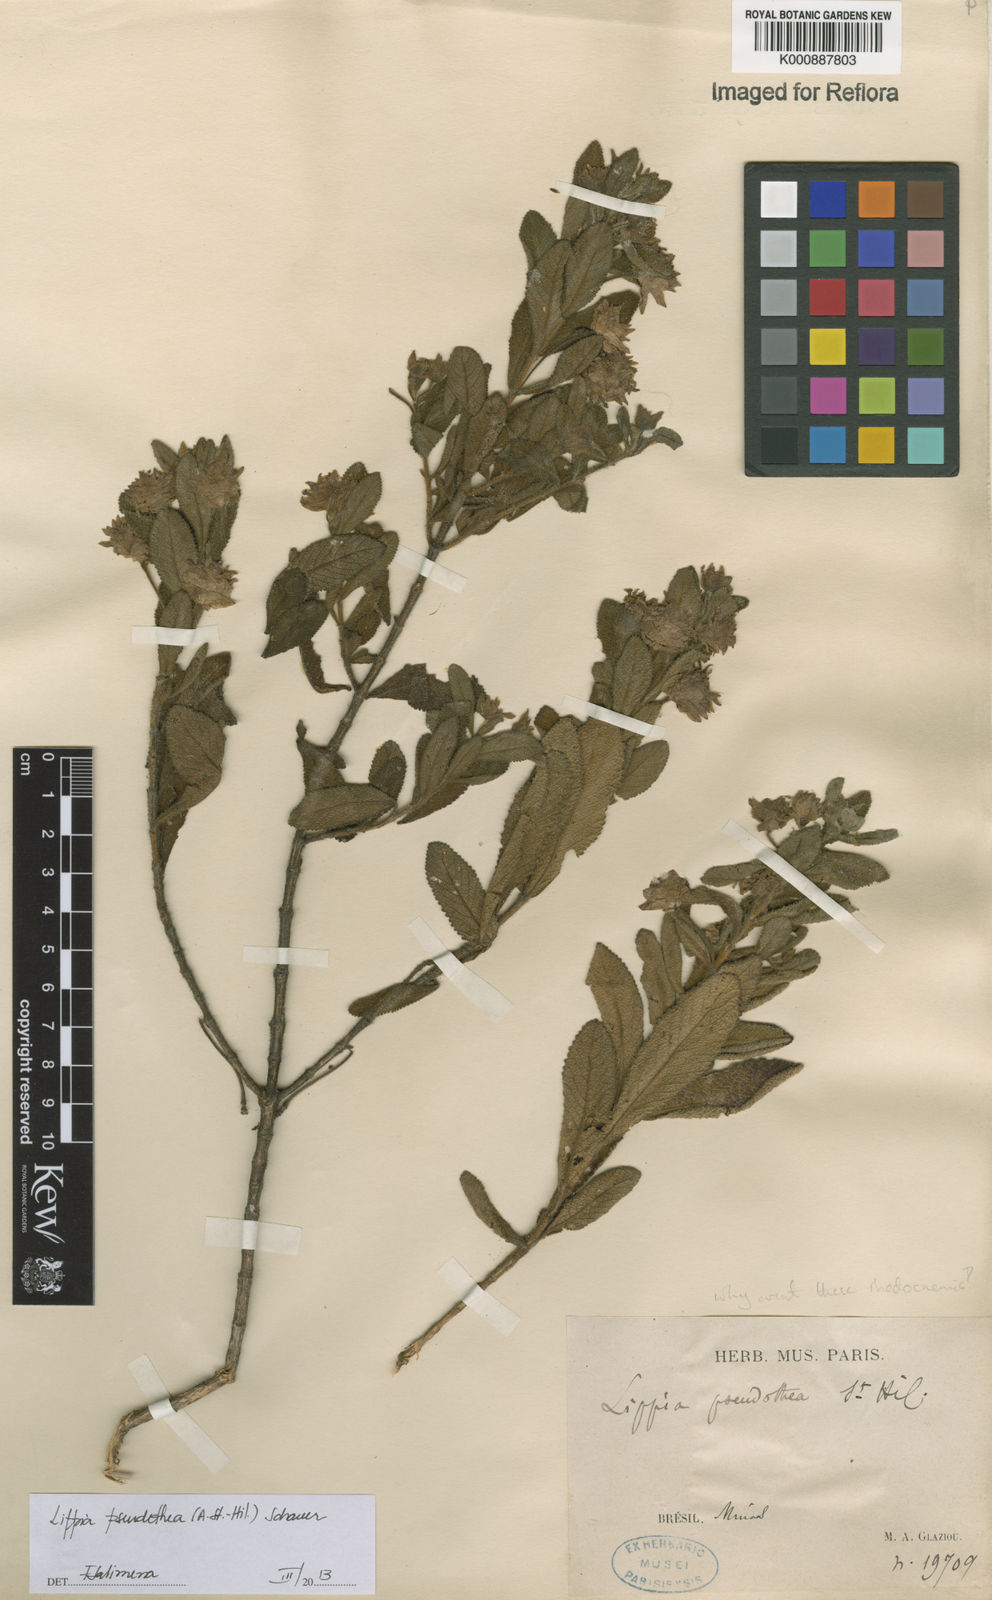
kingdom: Plantae
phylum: Tracheophyta
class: Magnoliopsida
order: Lamiales
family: Verbenaceae
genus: Lippia
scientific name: Lippia
